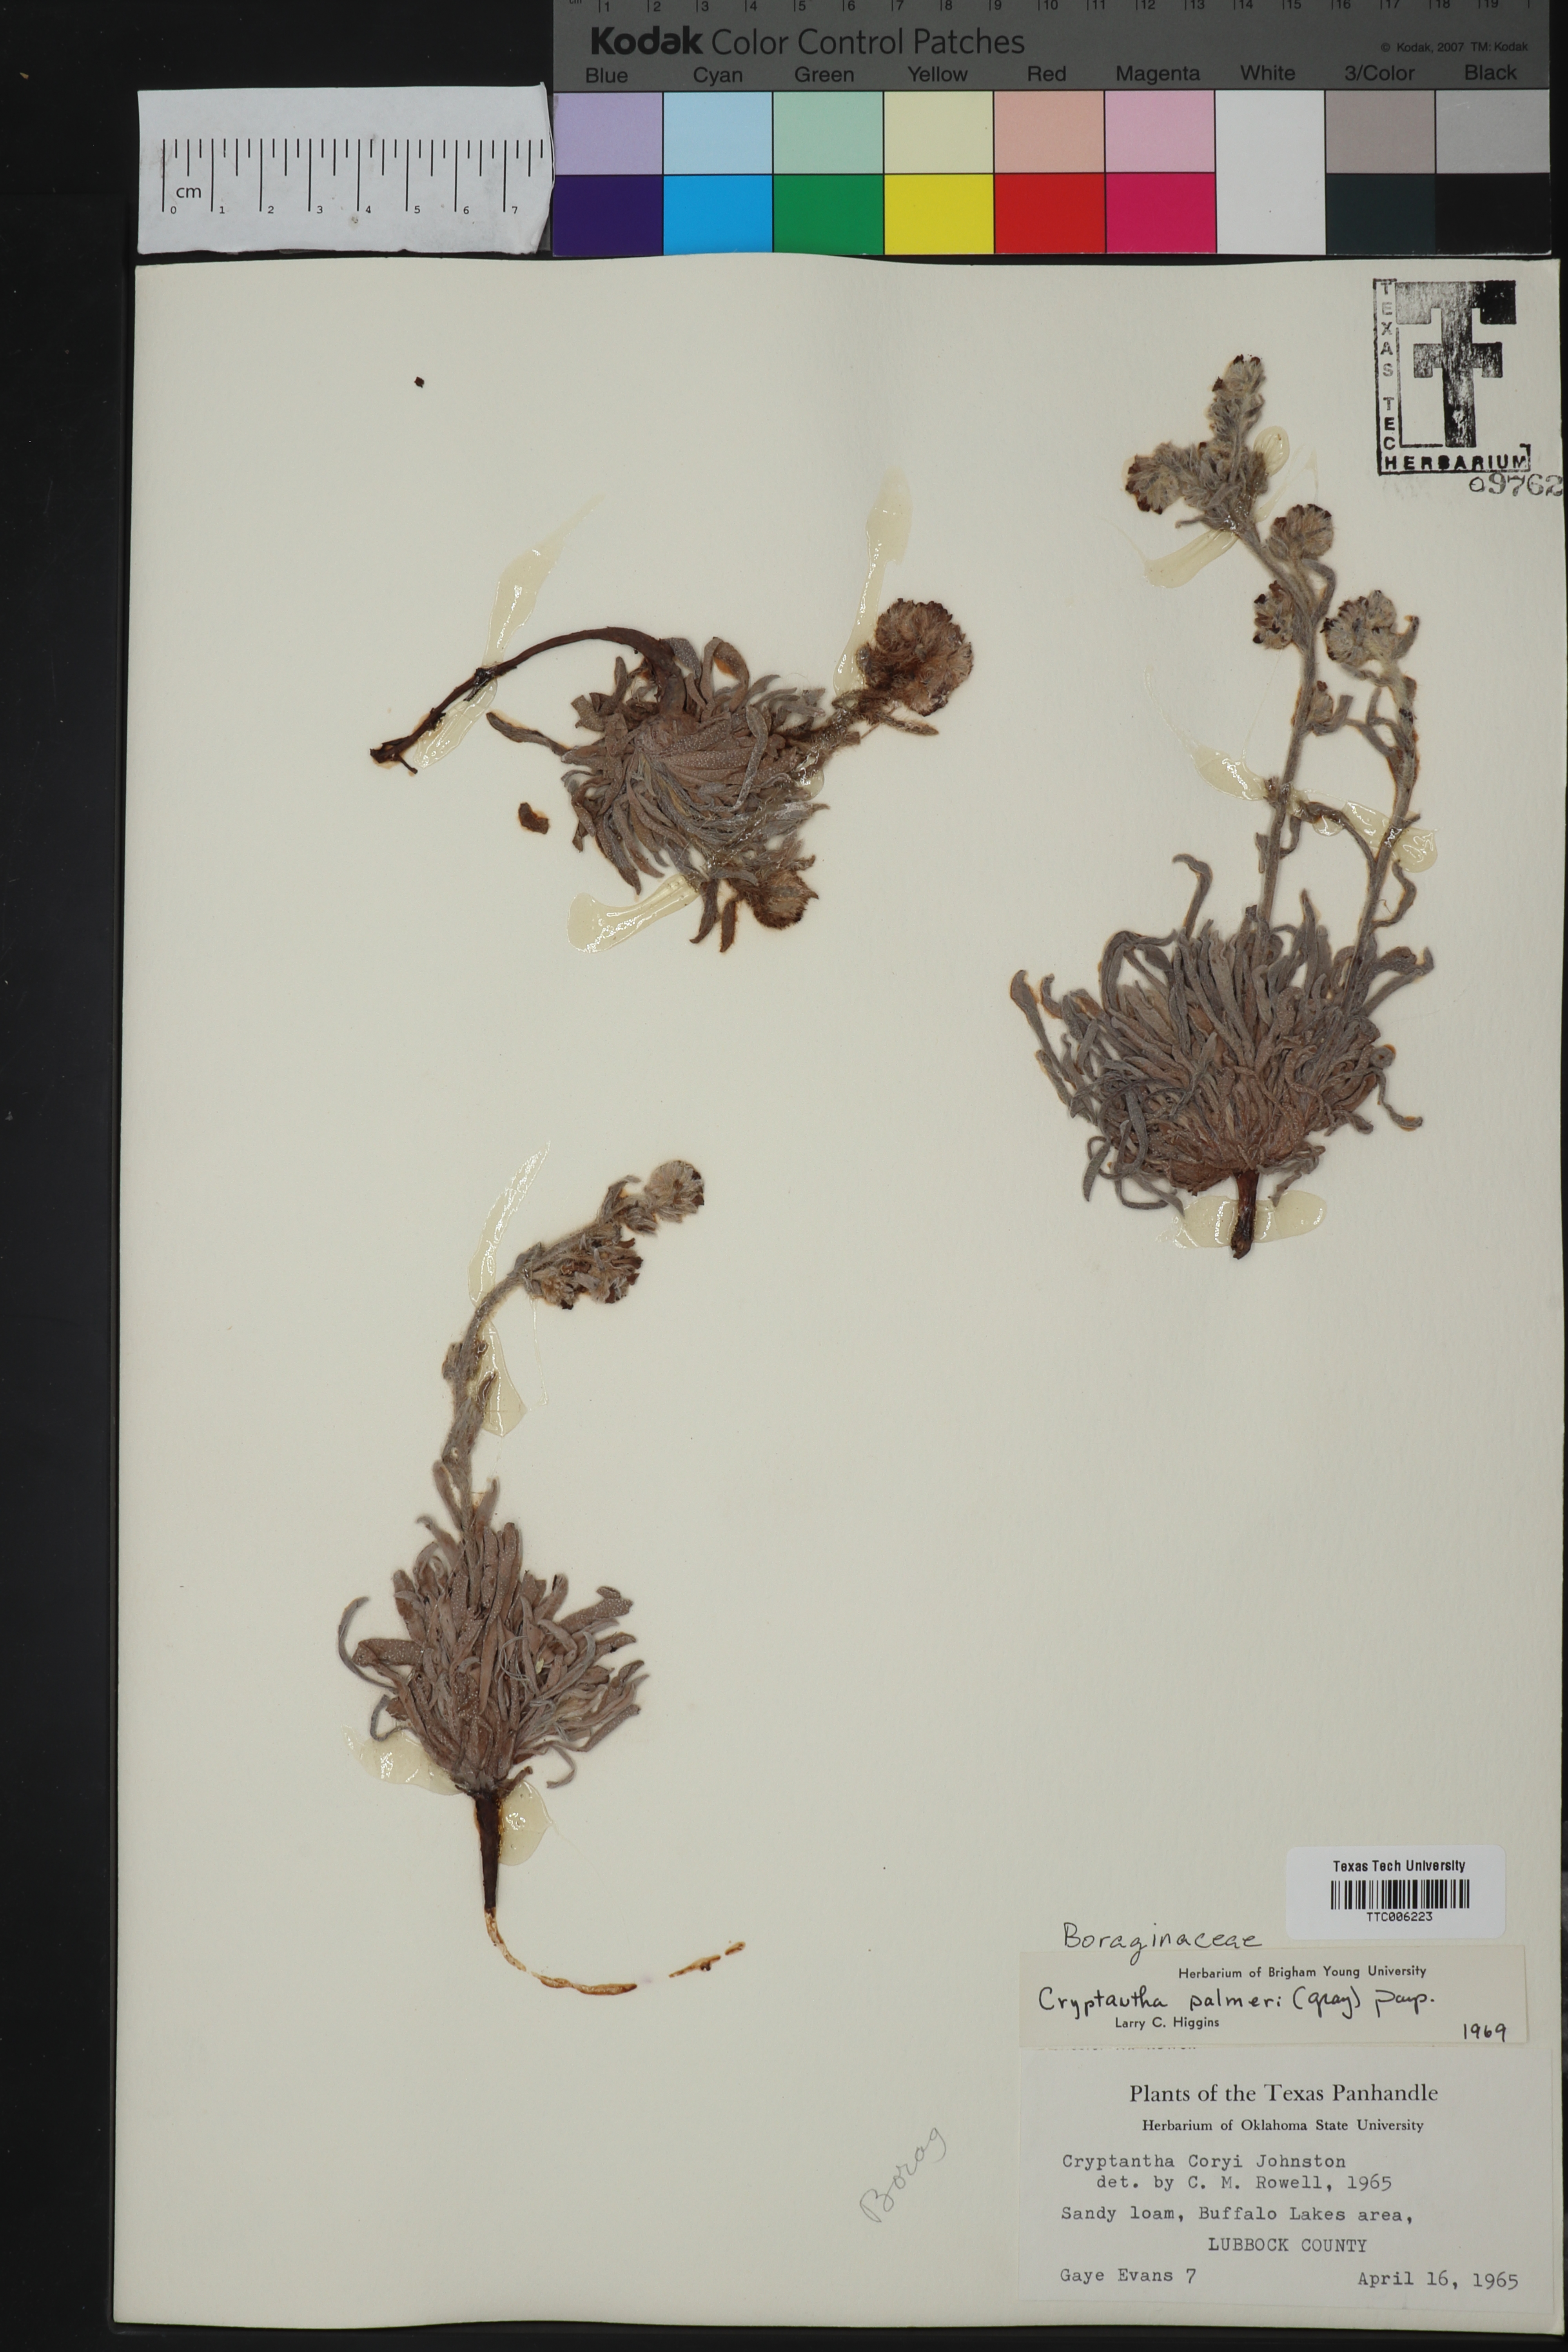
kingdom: Plantae
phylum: Tracheophyta
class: Magnoliopsida
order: Boraginales
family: Boraginaceae
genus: Oreocarya
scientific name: Oreocarya palmeri
